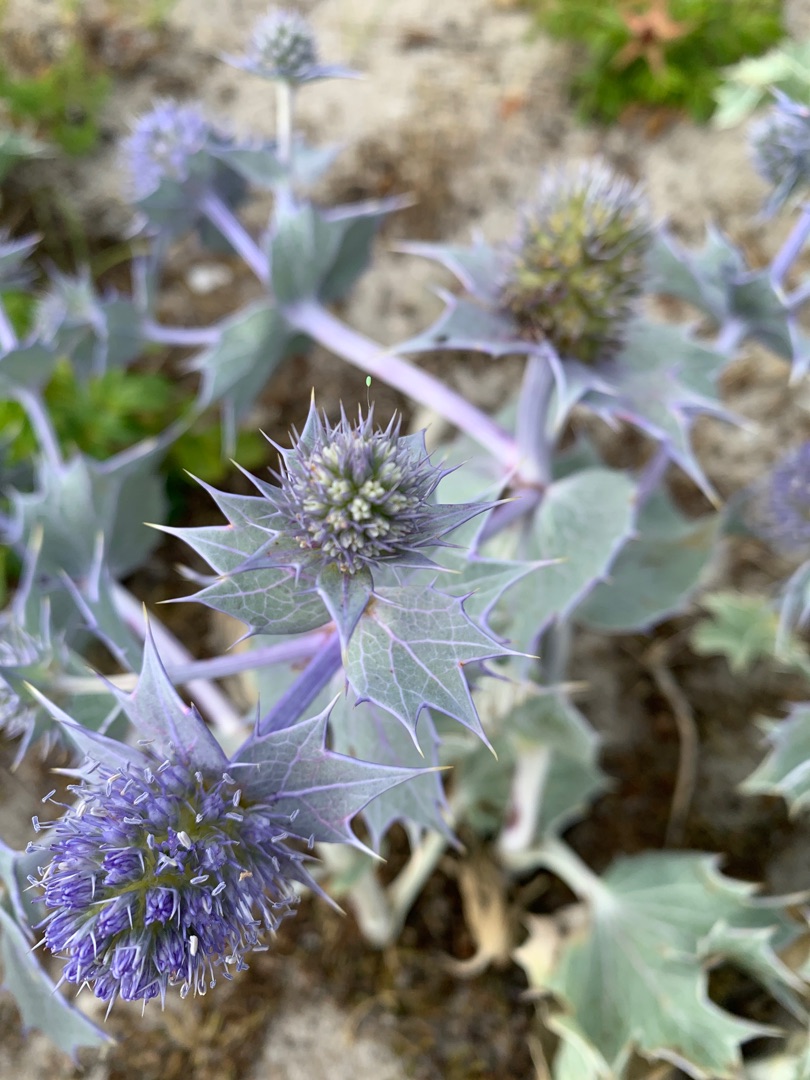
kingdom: Plantae
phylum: Tracheophyta
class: Magnoliopsida
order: Apiales
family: Apiaceae
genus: Eryngium
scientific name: Eryngium maritimum
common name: Strand-mandstro
